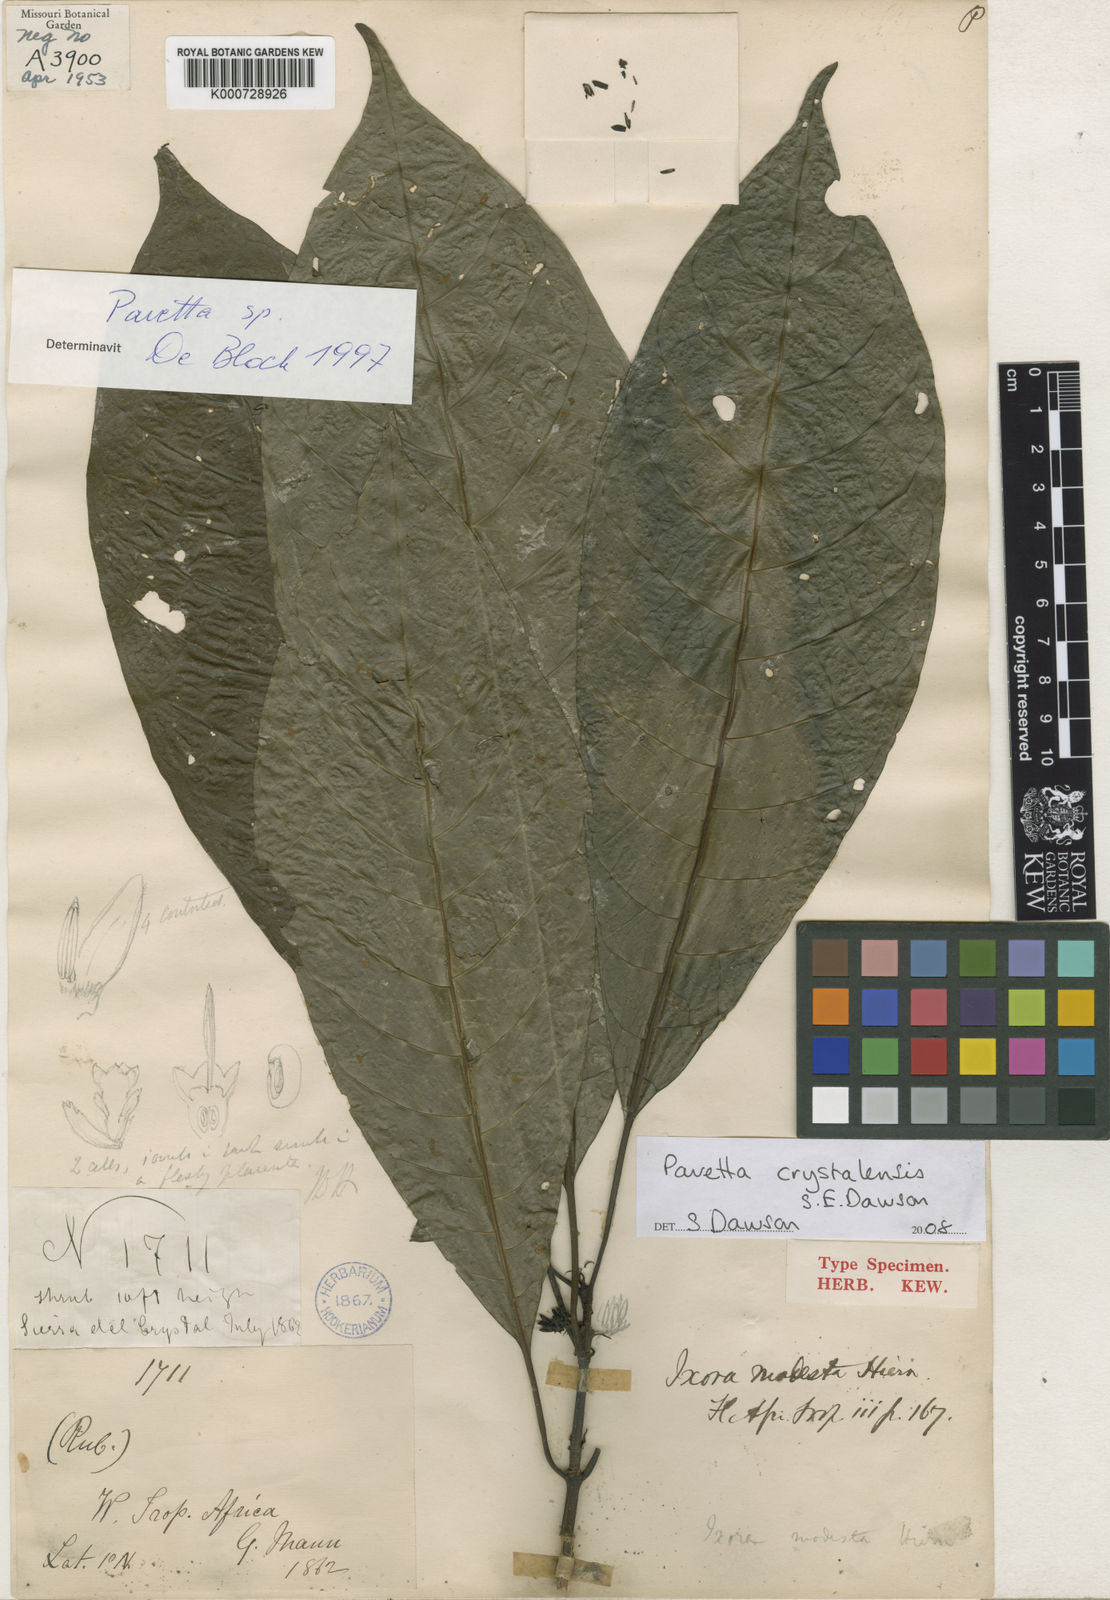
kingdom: Plantae
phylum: Tracheophyta
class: Magnoliopsida
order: Gentianales
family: Rubiaceae
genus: Pavetta
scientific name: Pavetta crystalensis
